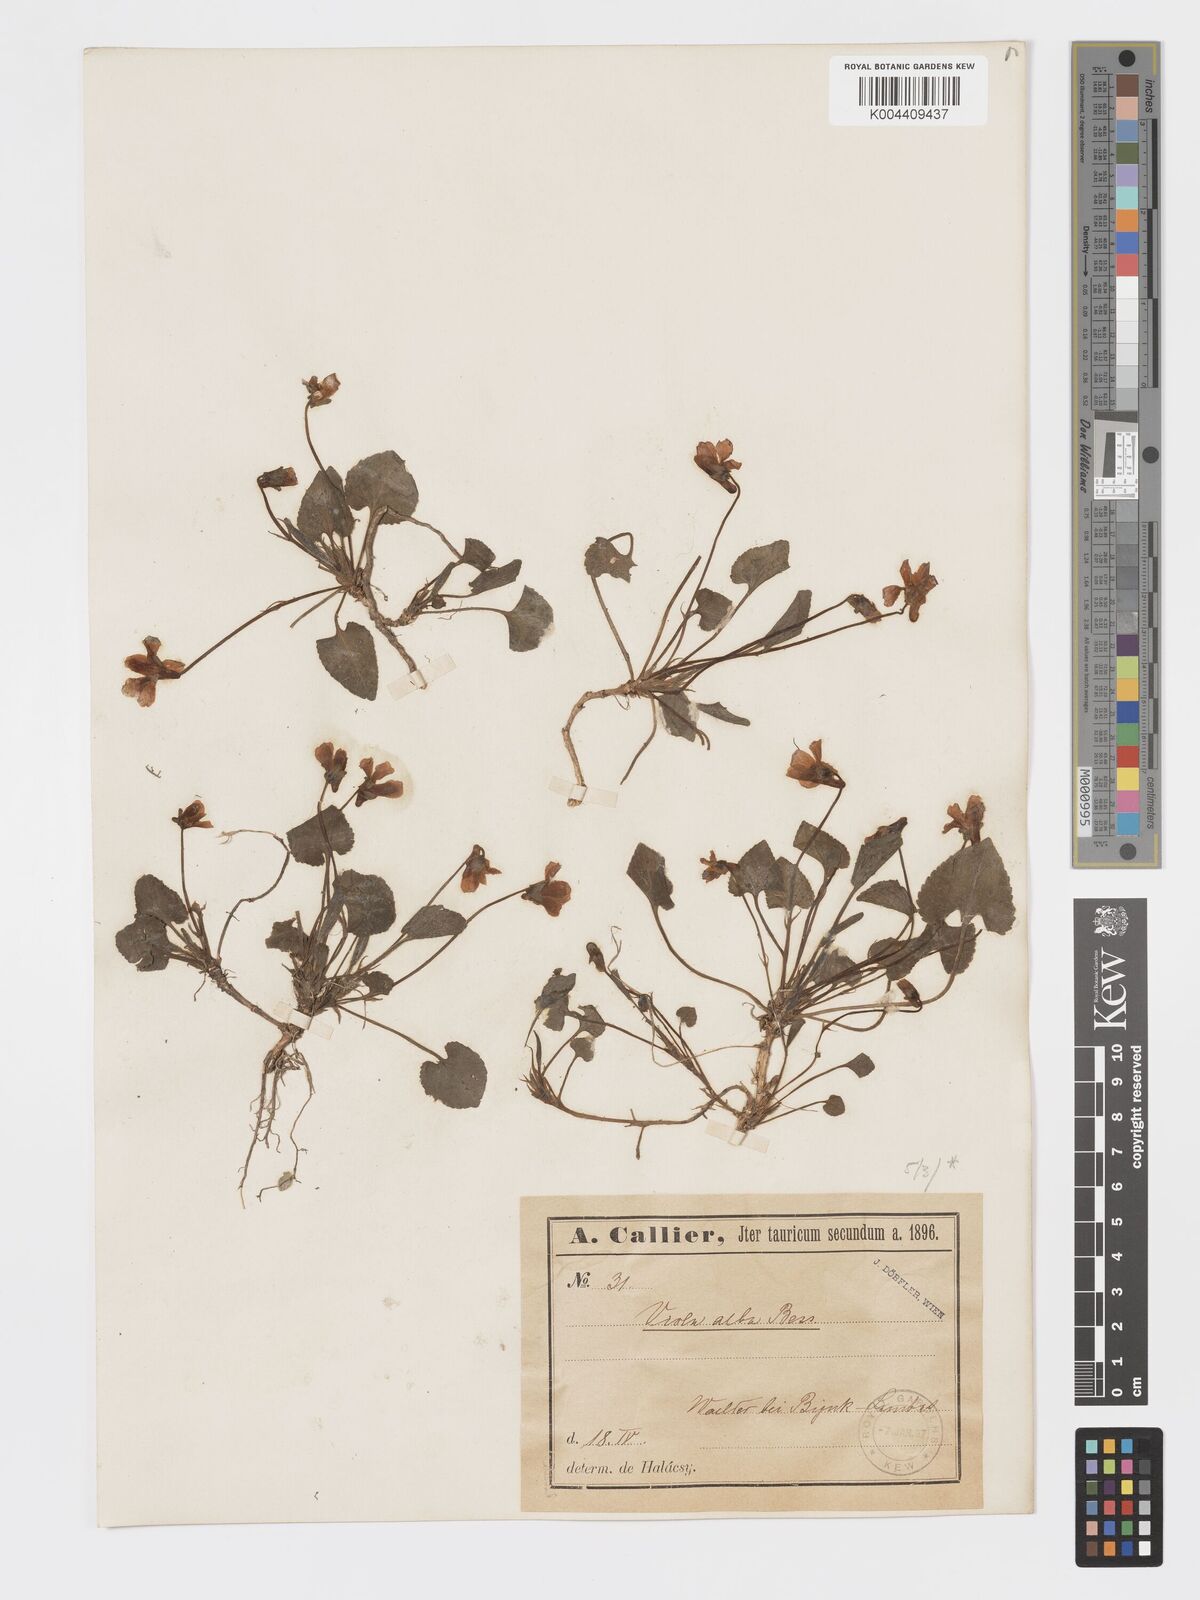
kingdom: Plantae
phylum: Tracheophyta
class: Magnoliopsida
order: Malpighiales
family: Violaceae
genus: Viola
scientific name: Viola alba
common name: White violet
